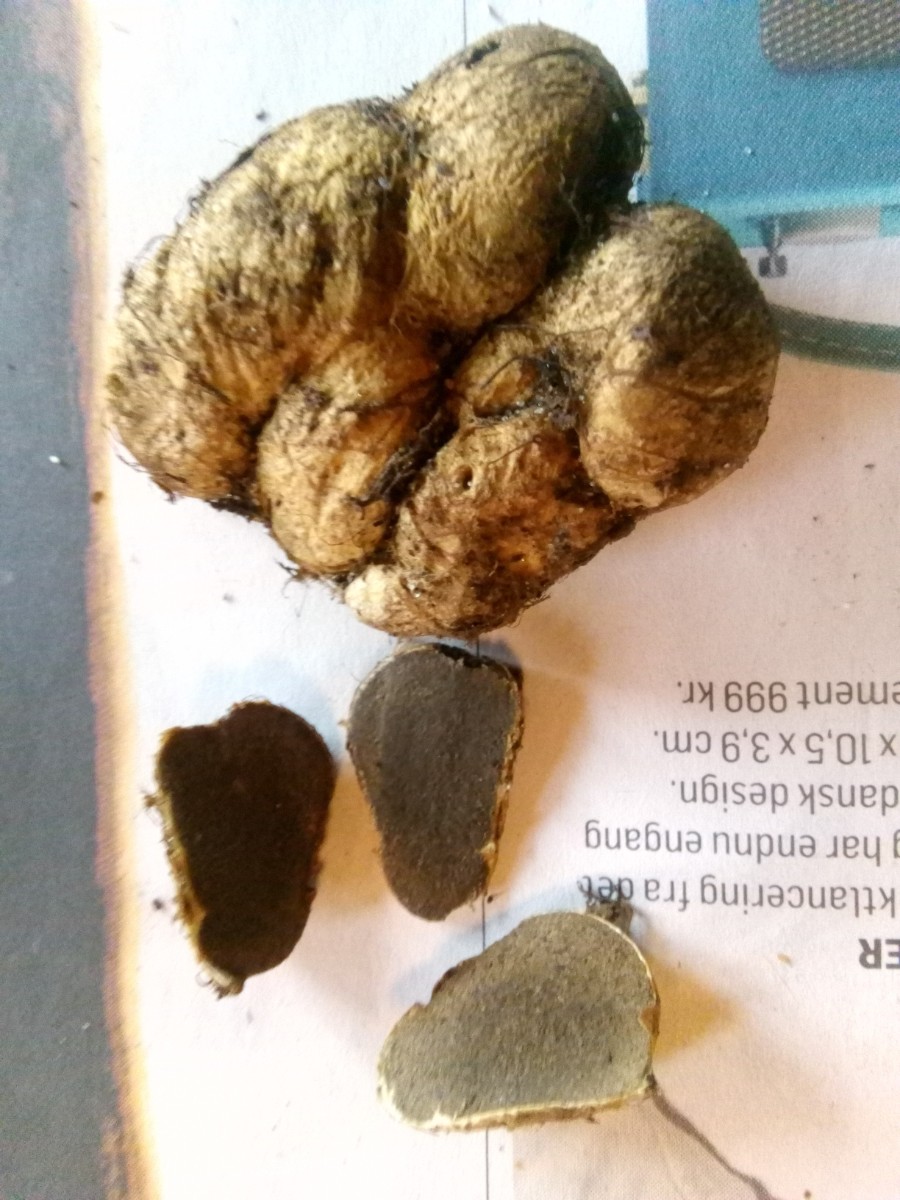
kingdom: Fungi
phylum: Basidiomycota
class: Agaricomycetes
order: Boletales
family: Rhizopogonaceae
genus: Rhizopogon
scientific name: Rhizopogon obtextus
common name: gul skægtrøffel
